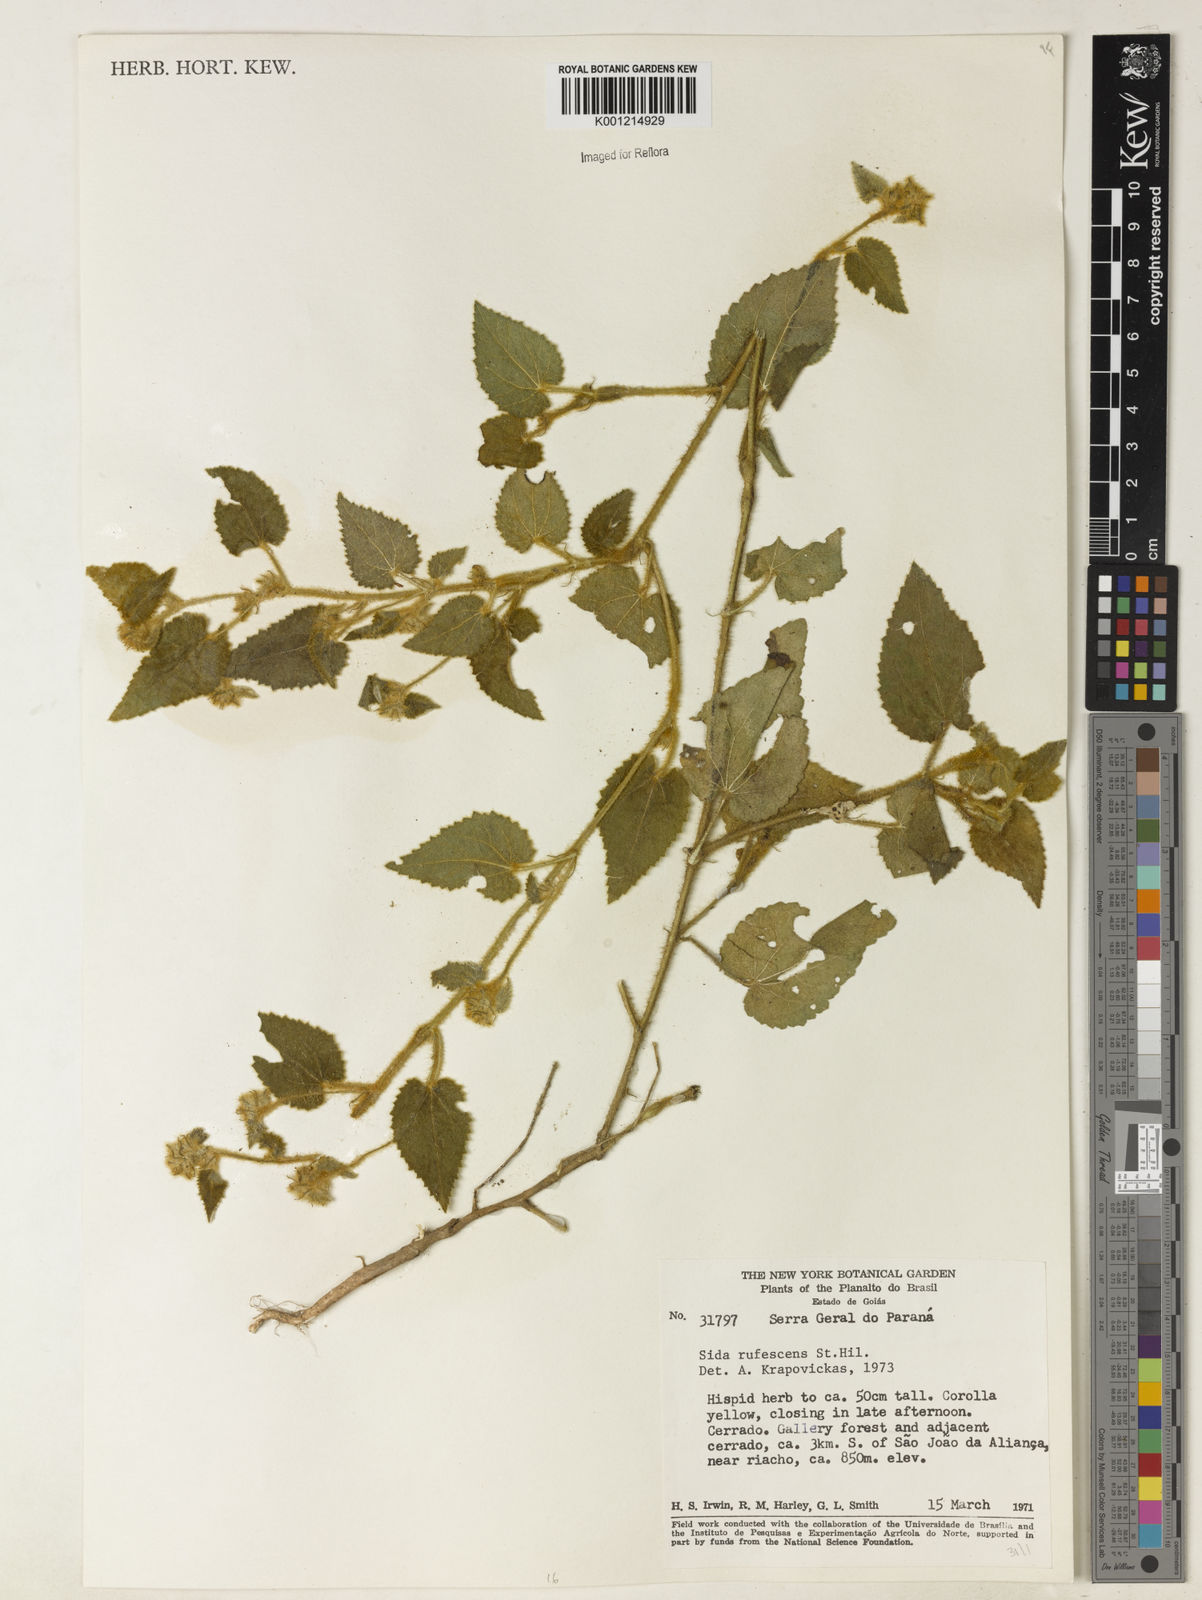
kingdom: Plantae
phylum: Tracheophyta
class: Magnoliopsida
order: Malvales
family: Malvaceae
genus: Sida
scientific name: Sida rufescens
